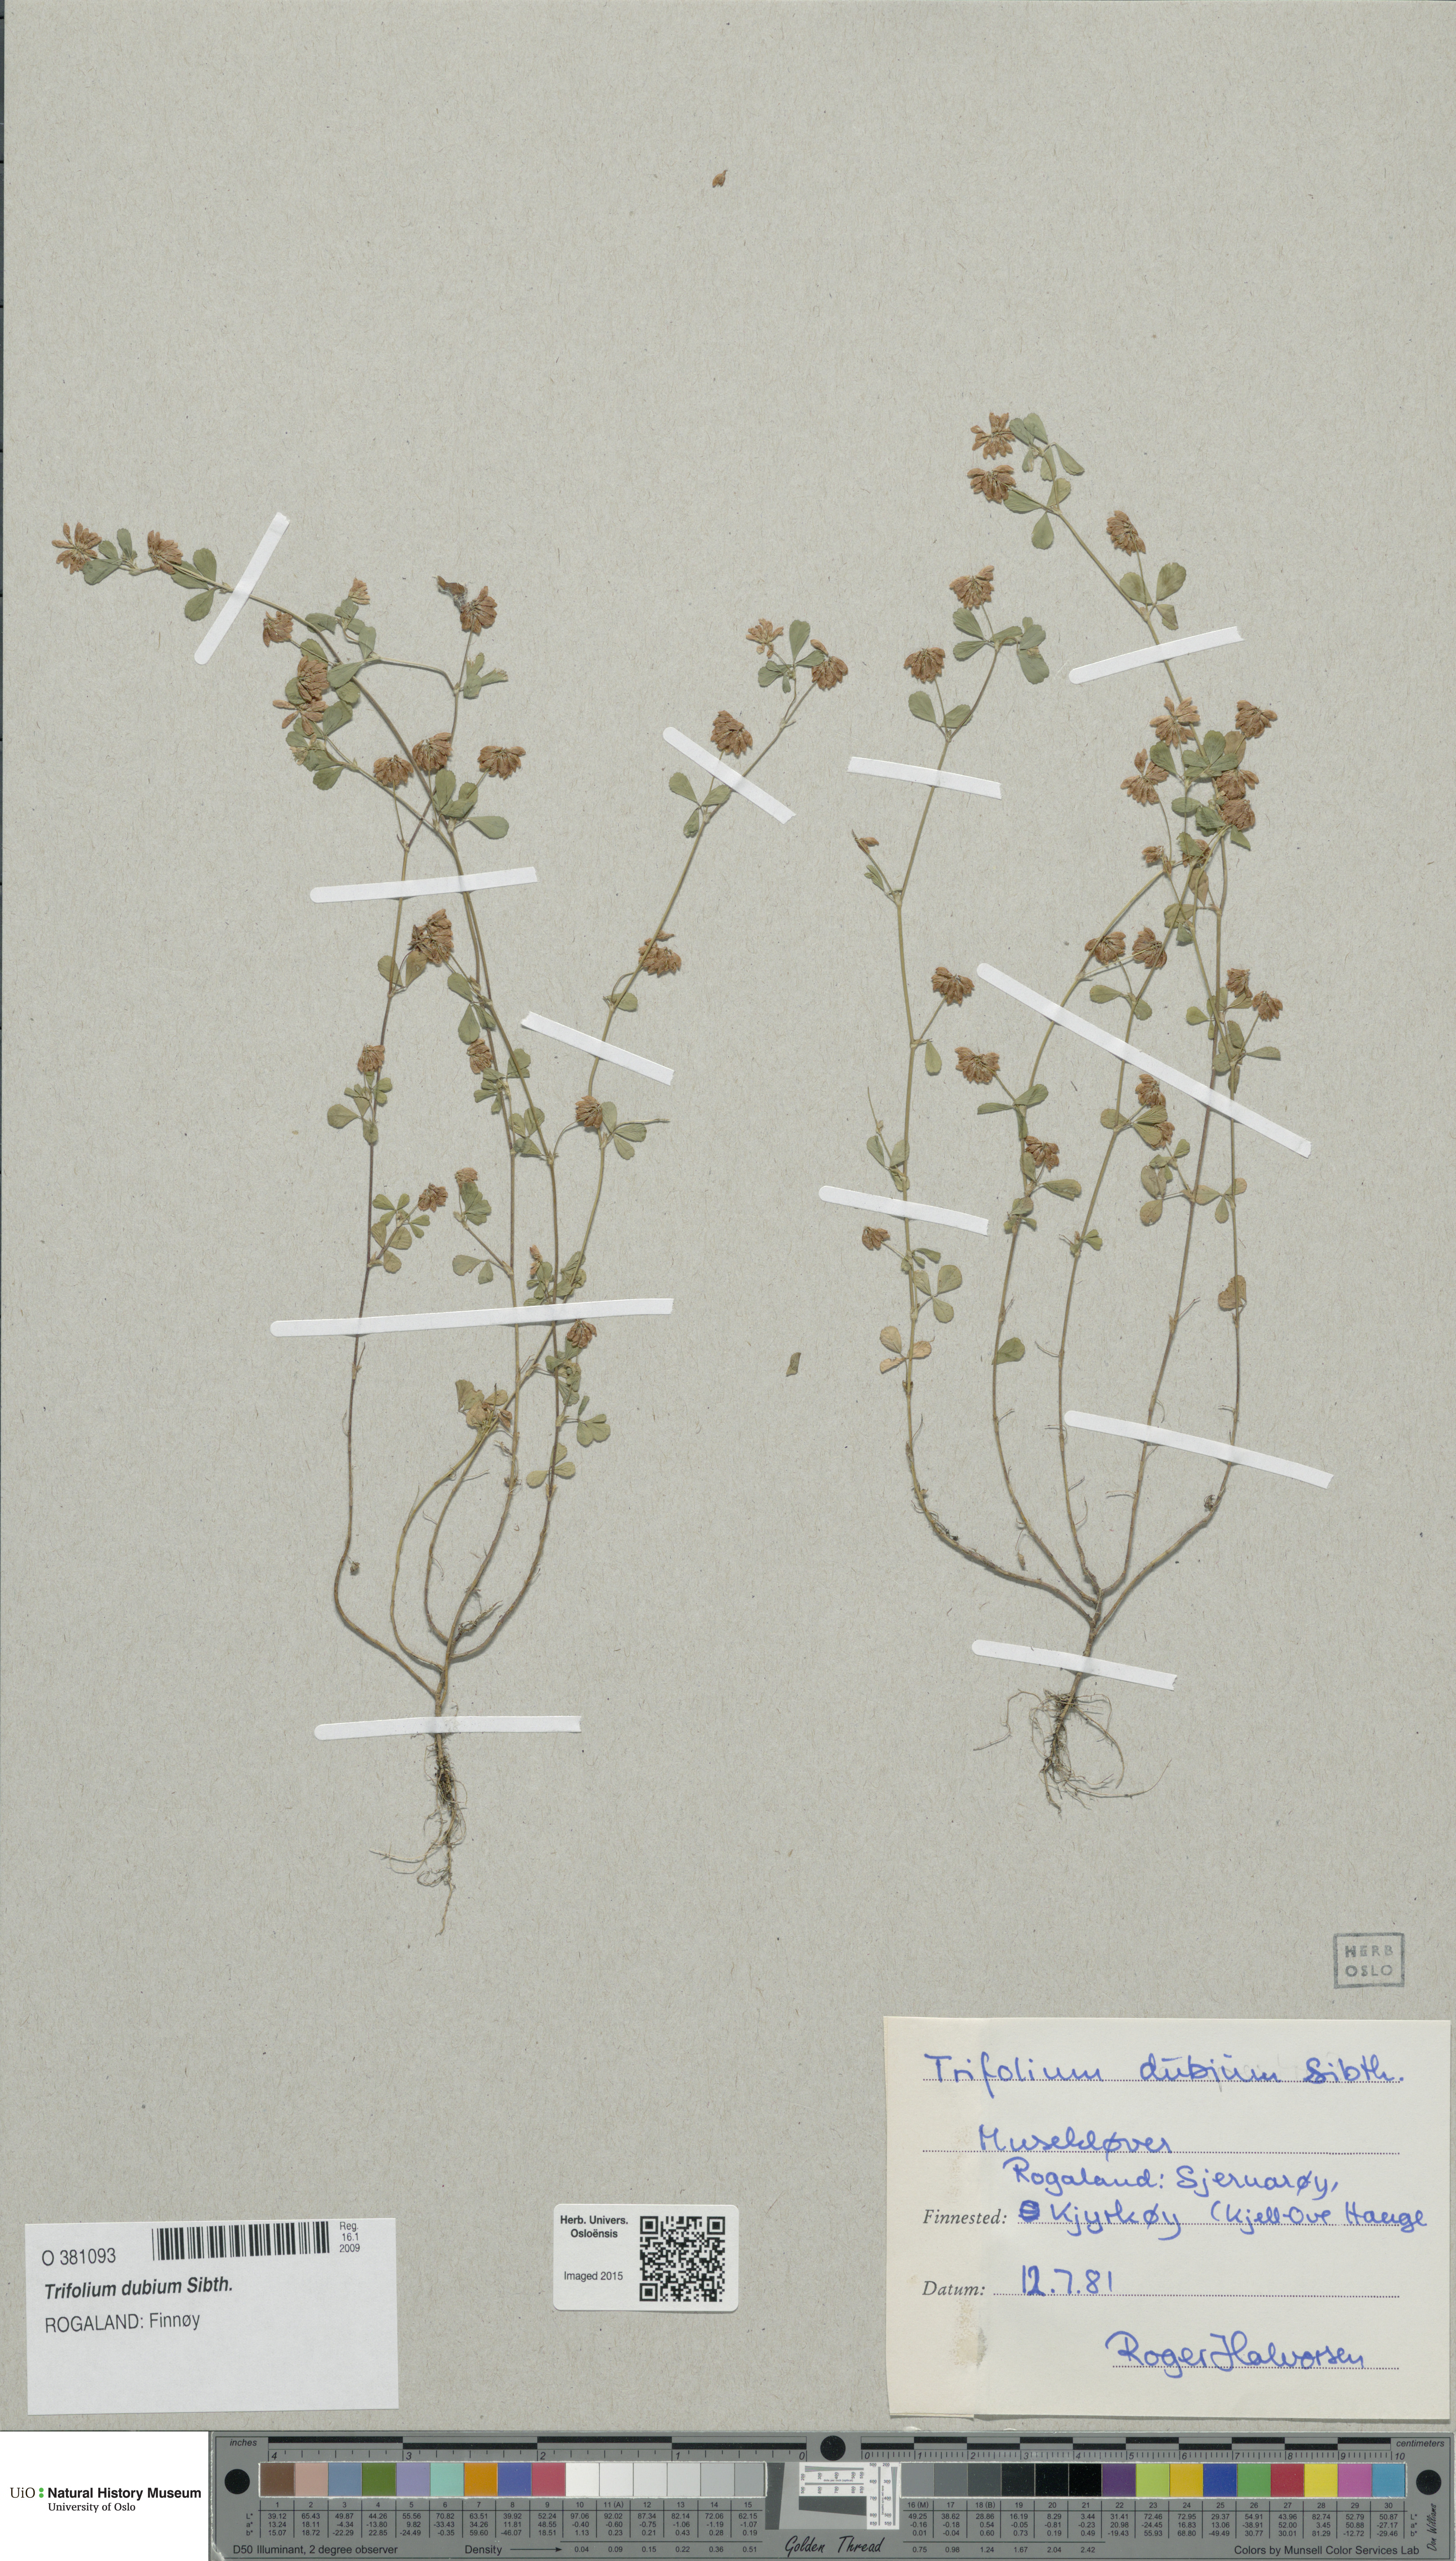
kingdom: Plantae
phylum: Tracheophyta
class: Magnoliopsida
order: Fabales
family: Fabaceae
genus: Trifolium
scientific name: Trifolium dubium
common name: Suckling clover
